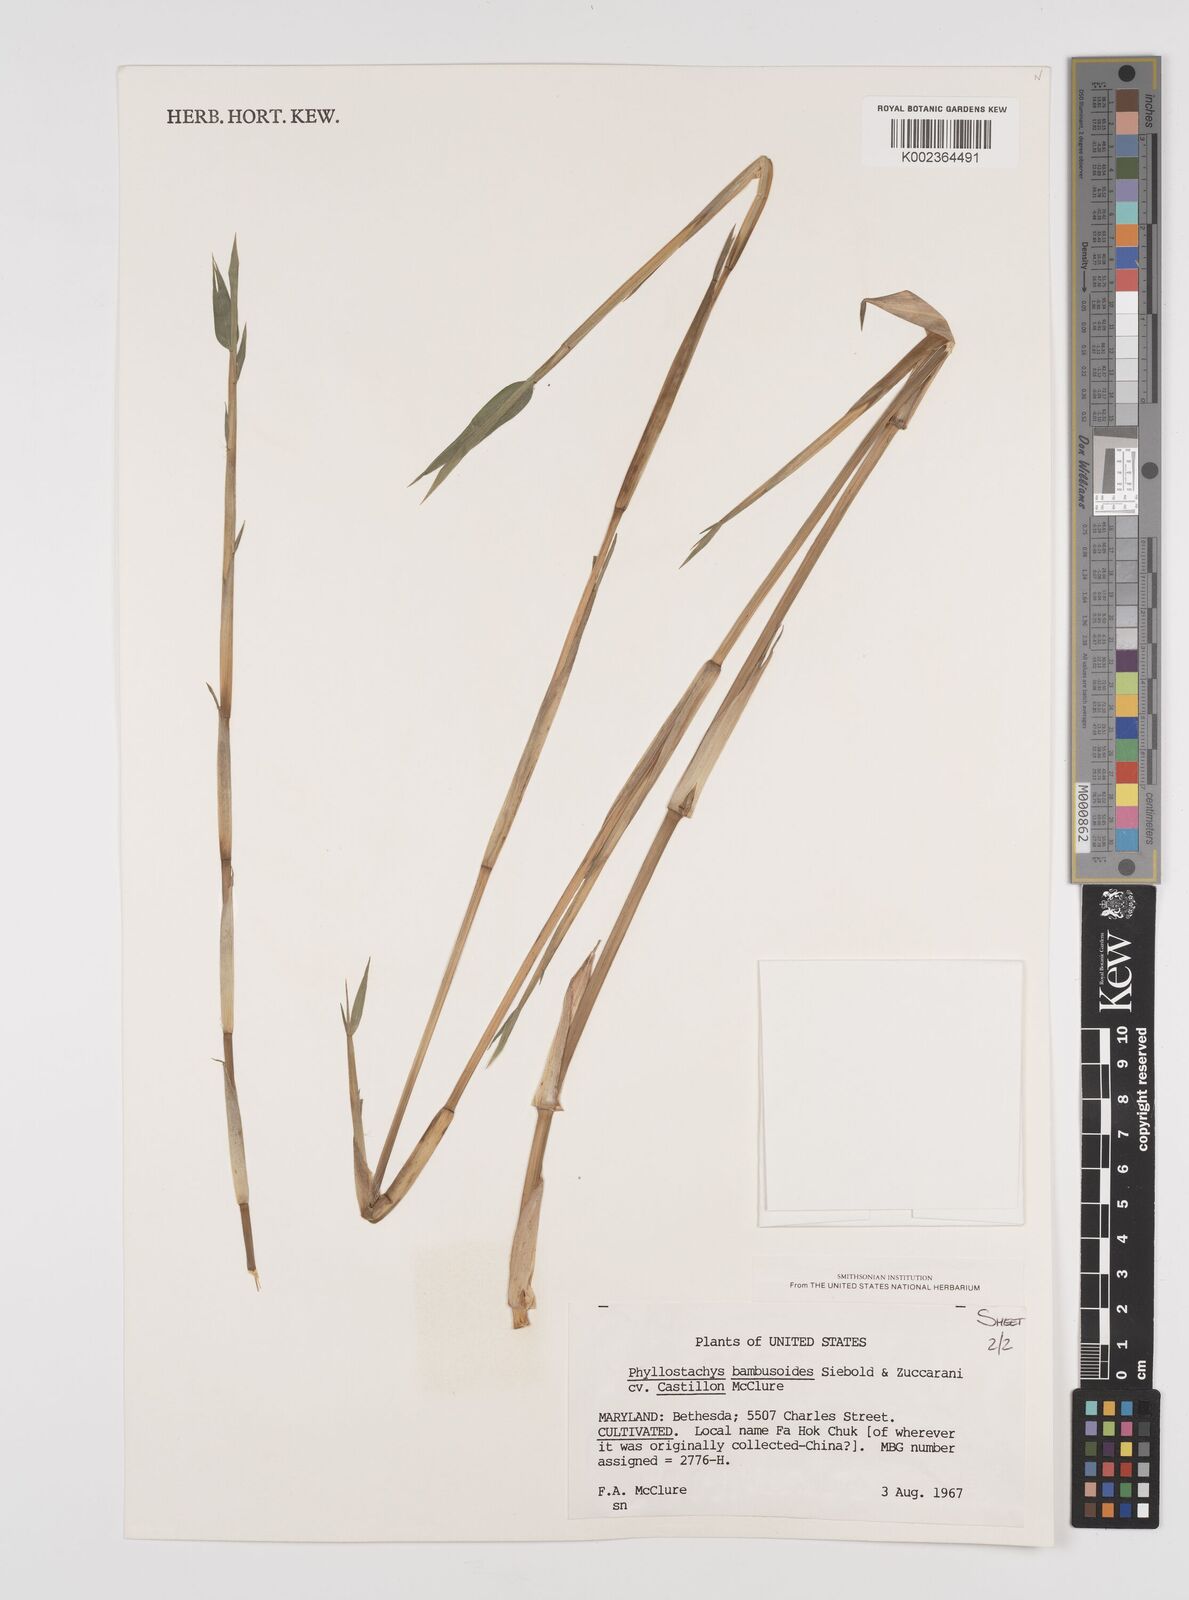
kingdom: Plantae
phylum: Tracheophyta
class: Liliopsida
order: Poales
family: Poaceae
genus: Phyllostachys
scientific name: Phyllostachys reticulata
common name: Bamboo
